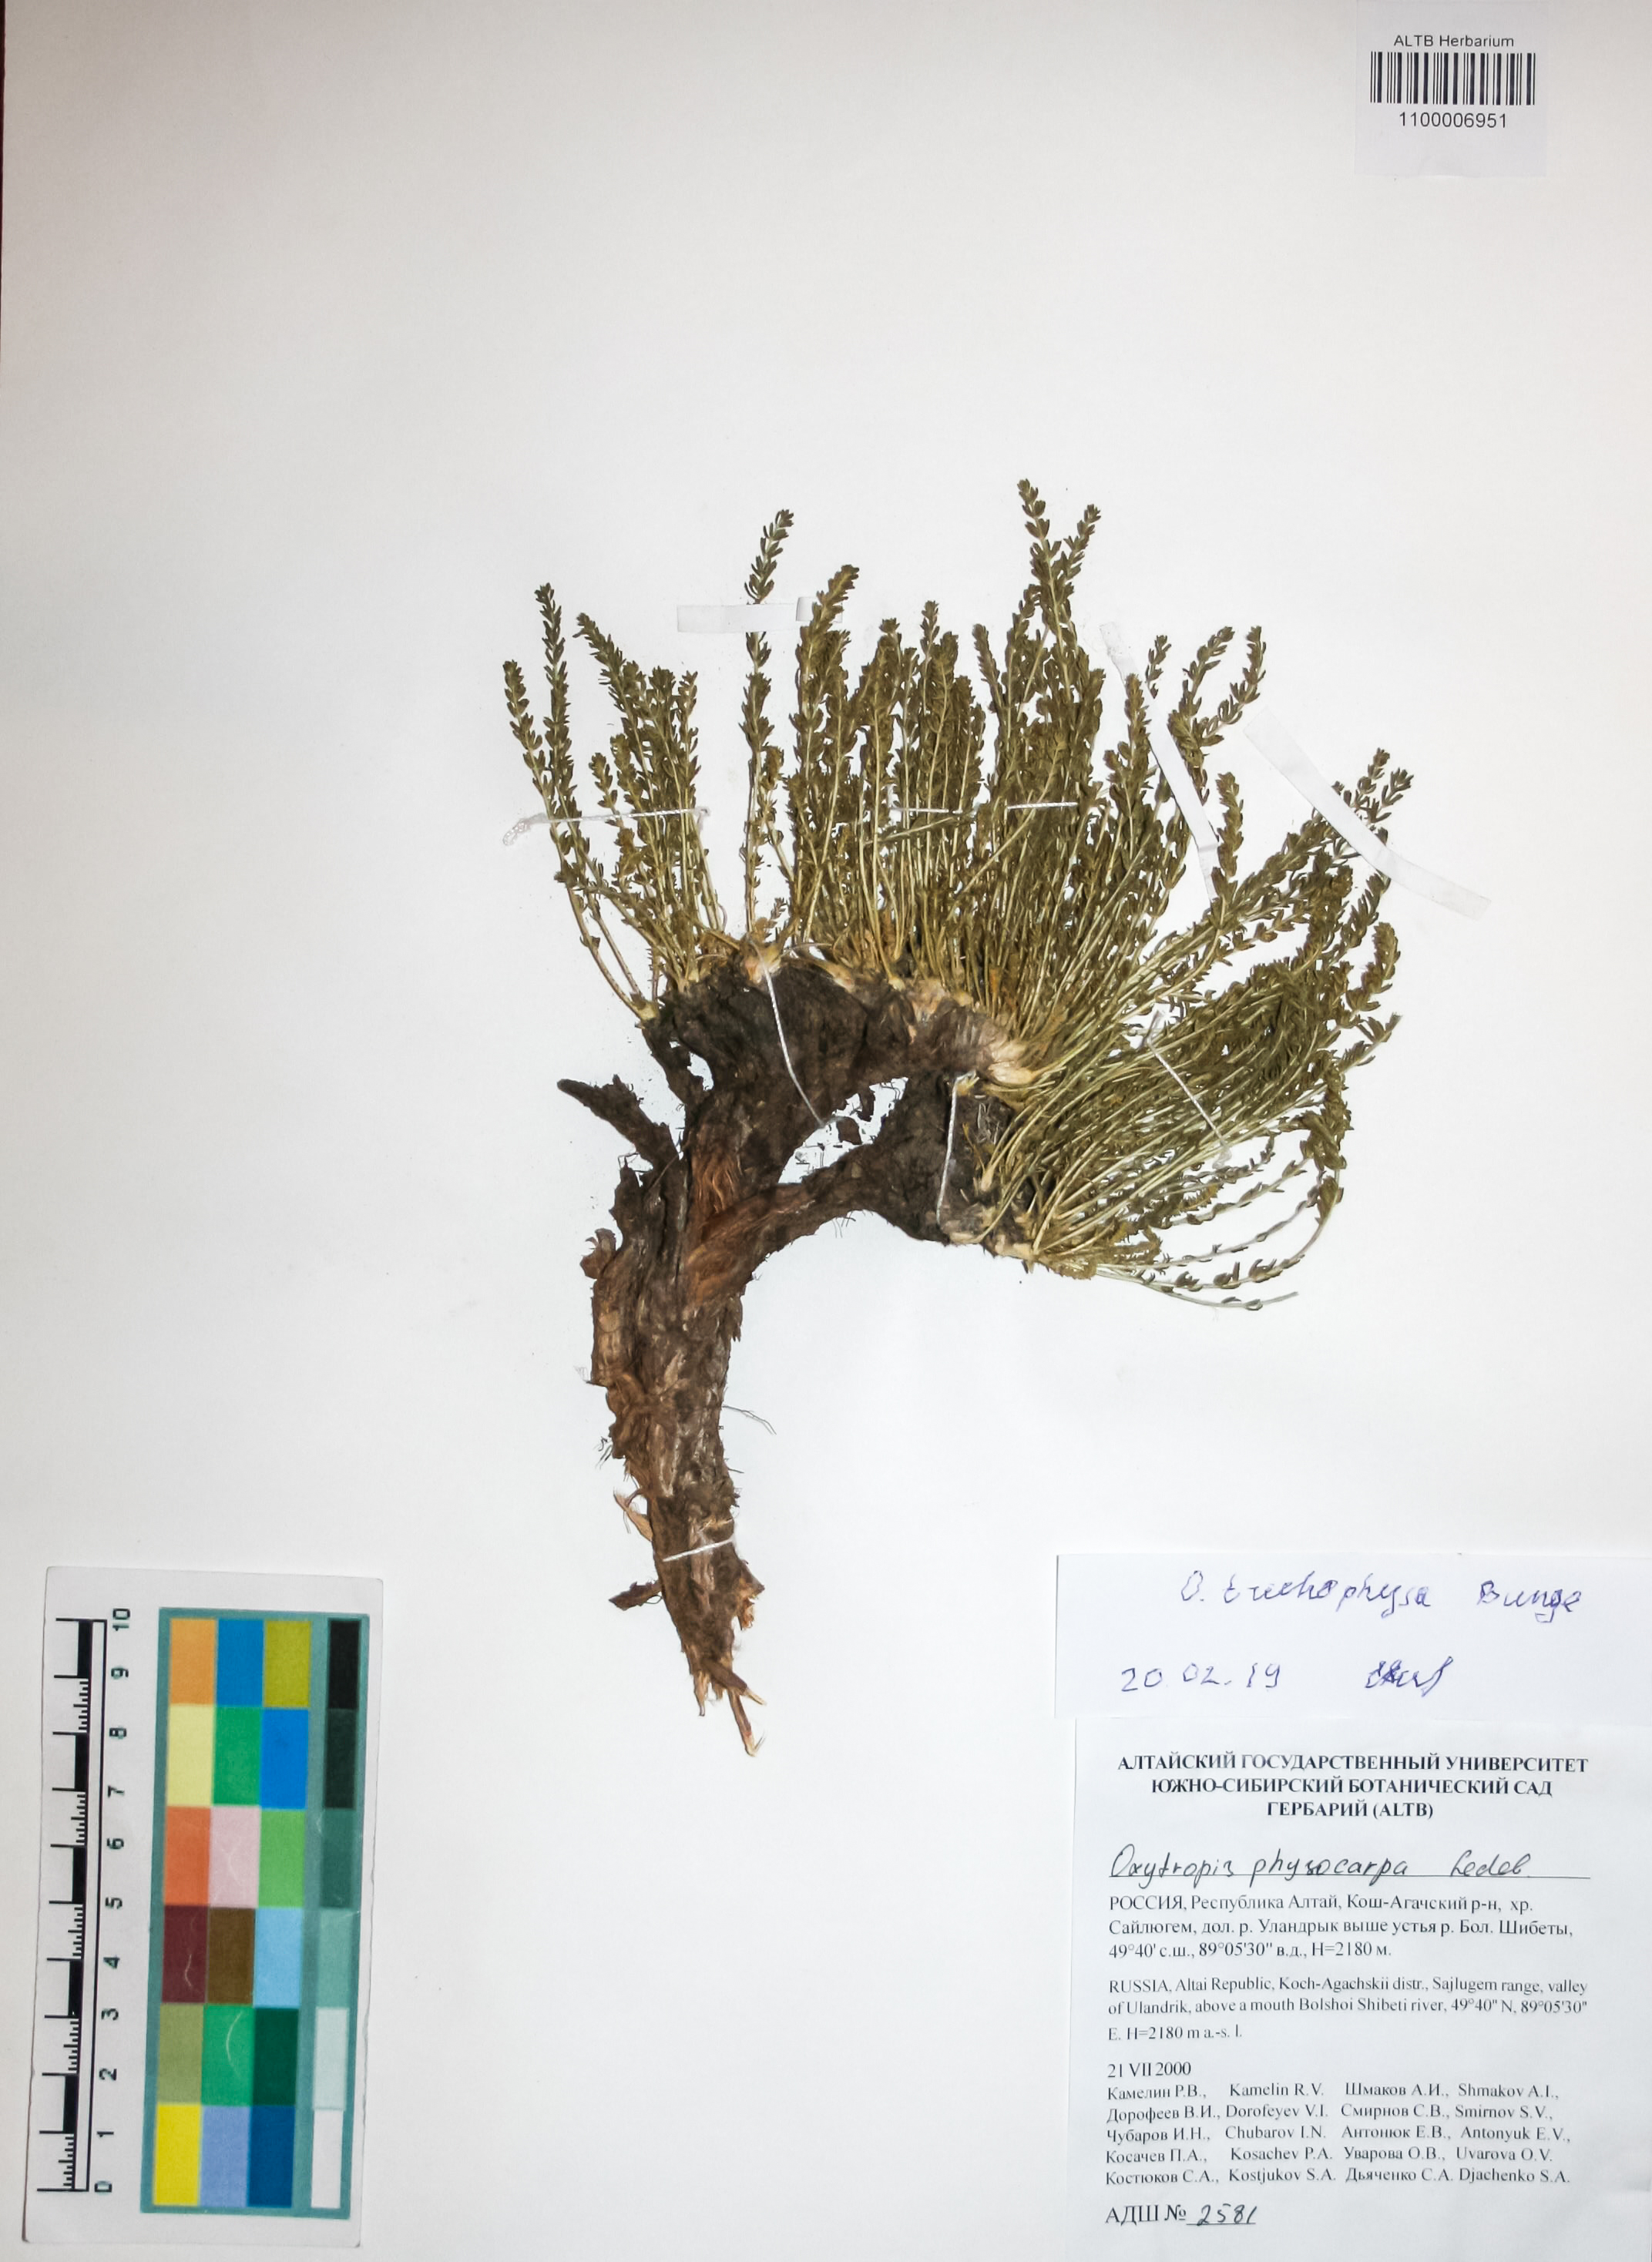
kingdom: Plantae
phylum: Tracheophyta
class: Magnoliopsida
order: Fabales
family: Fabaceae
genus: Oxytropis
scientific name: Oxytropis trichophysa
